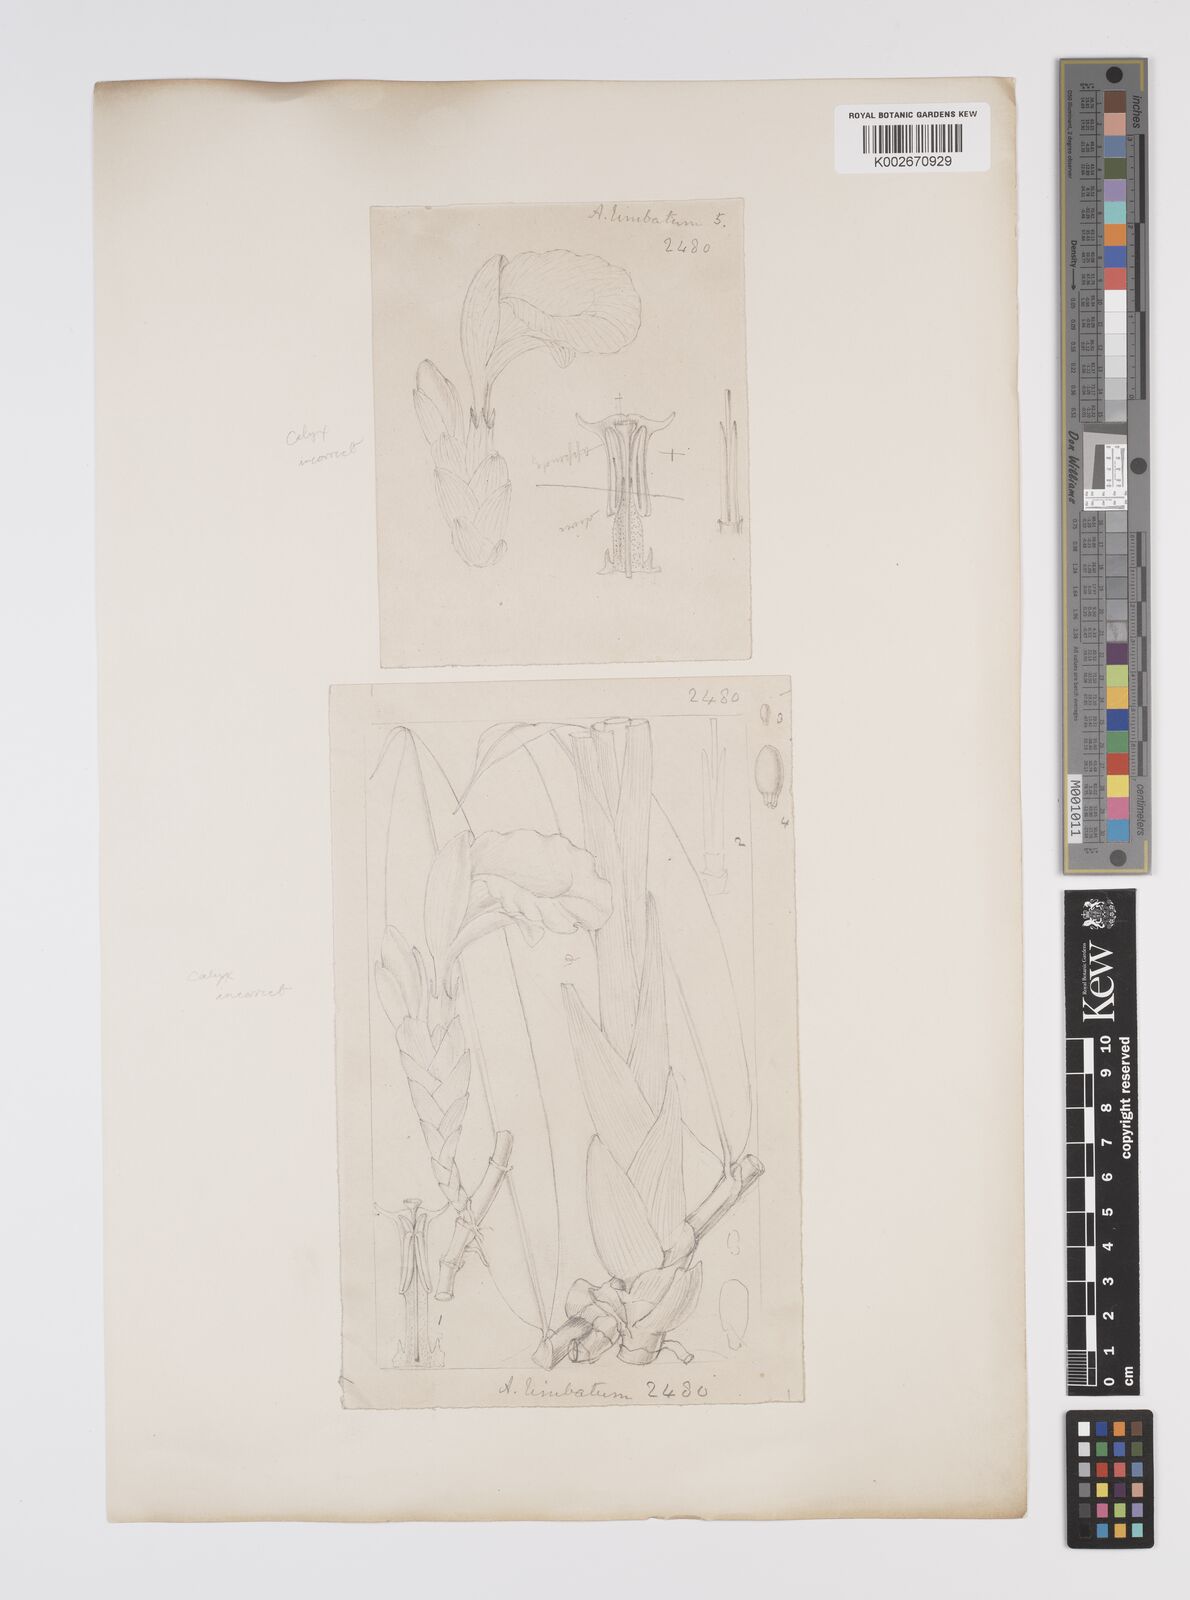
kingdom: Plantae
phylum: Tracheophyta
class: Liliopsida
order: Zingiberales
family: Zingiberaceae
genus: Aframomum
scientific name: Aframomum limbatum
